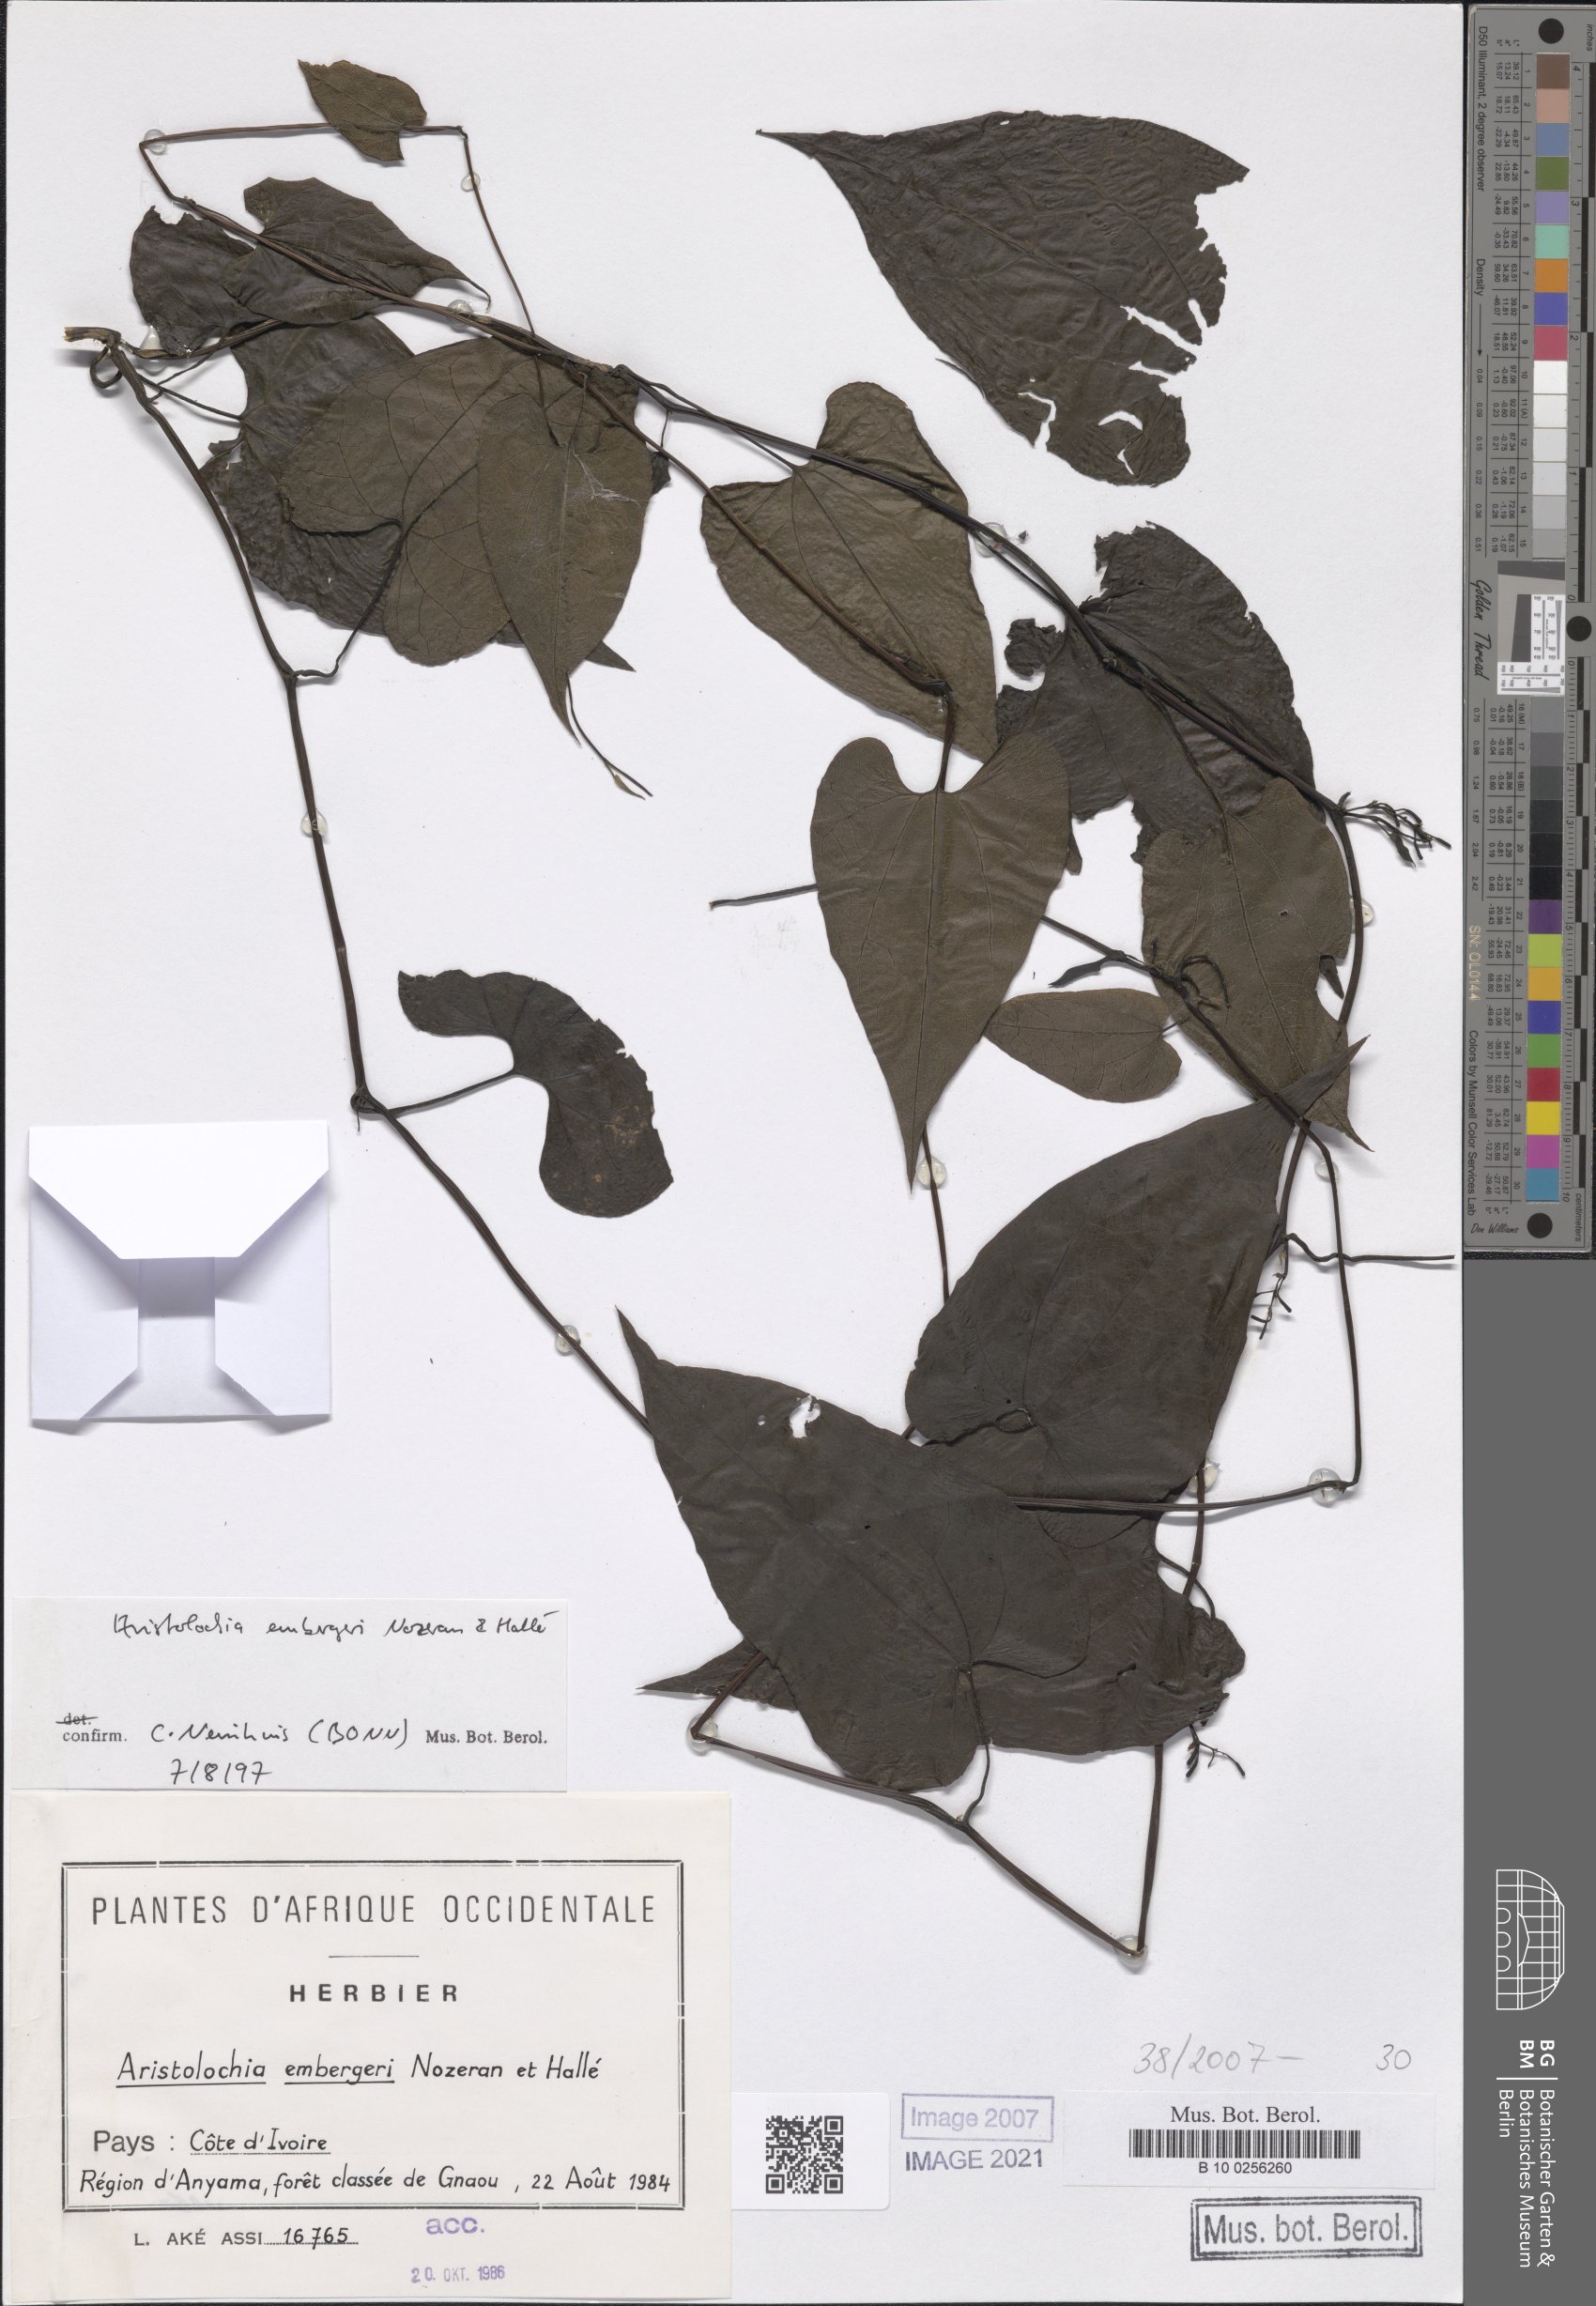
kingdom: Plantae
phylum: Tracheophyta
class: Magnoliopsida
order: Piperales
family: Aristolochiaceae
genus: Aristolochia
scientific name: Aristolochia embergeri
